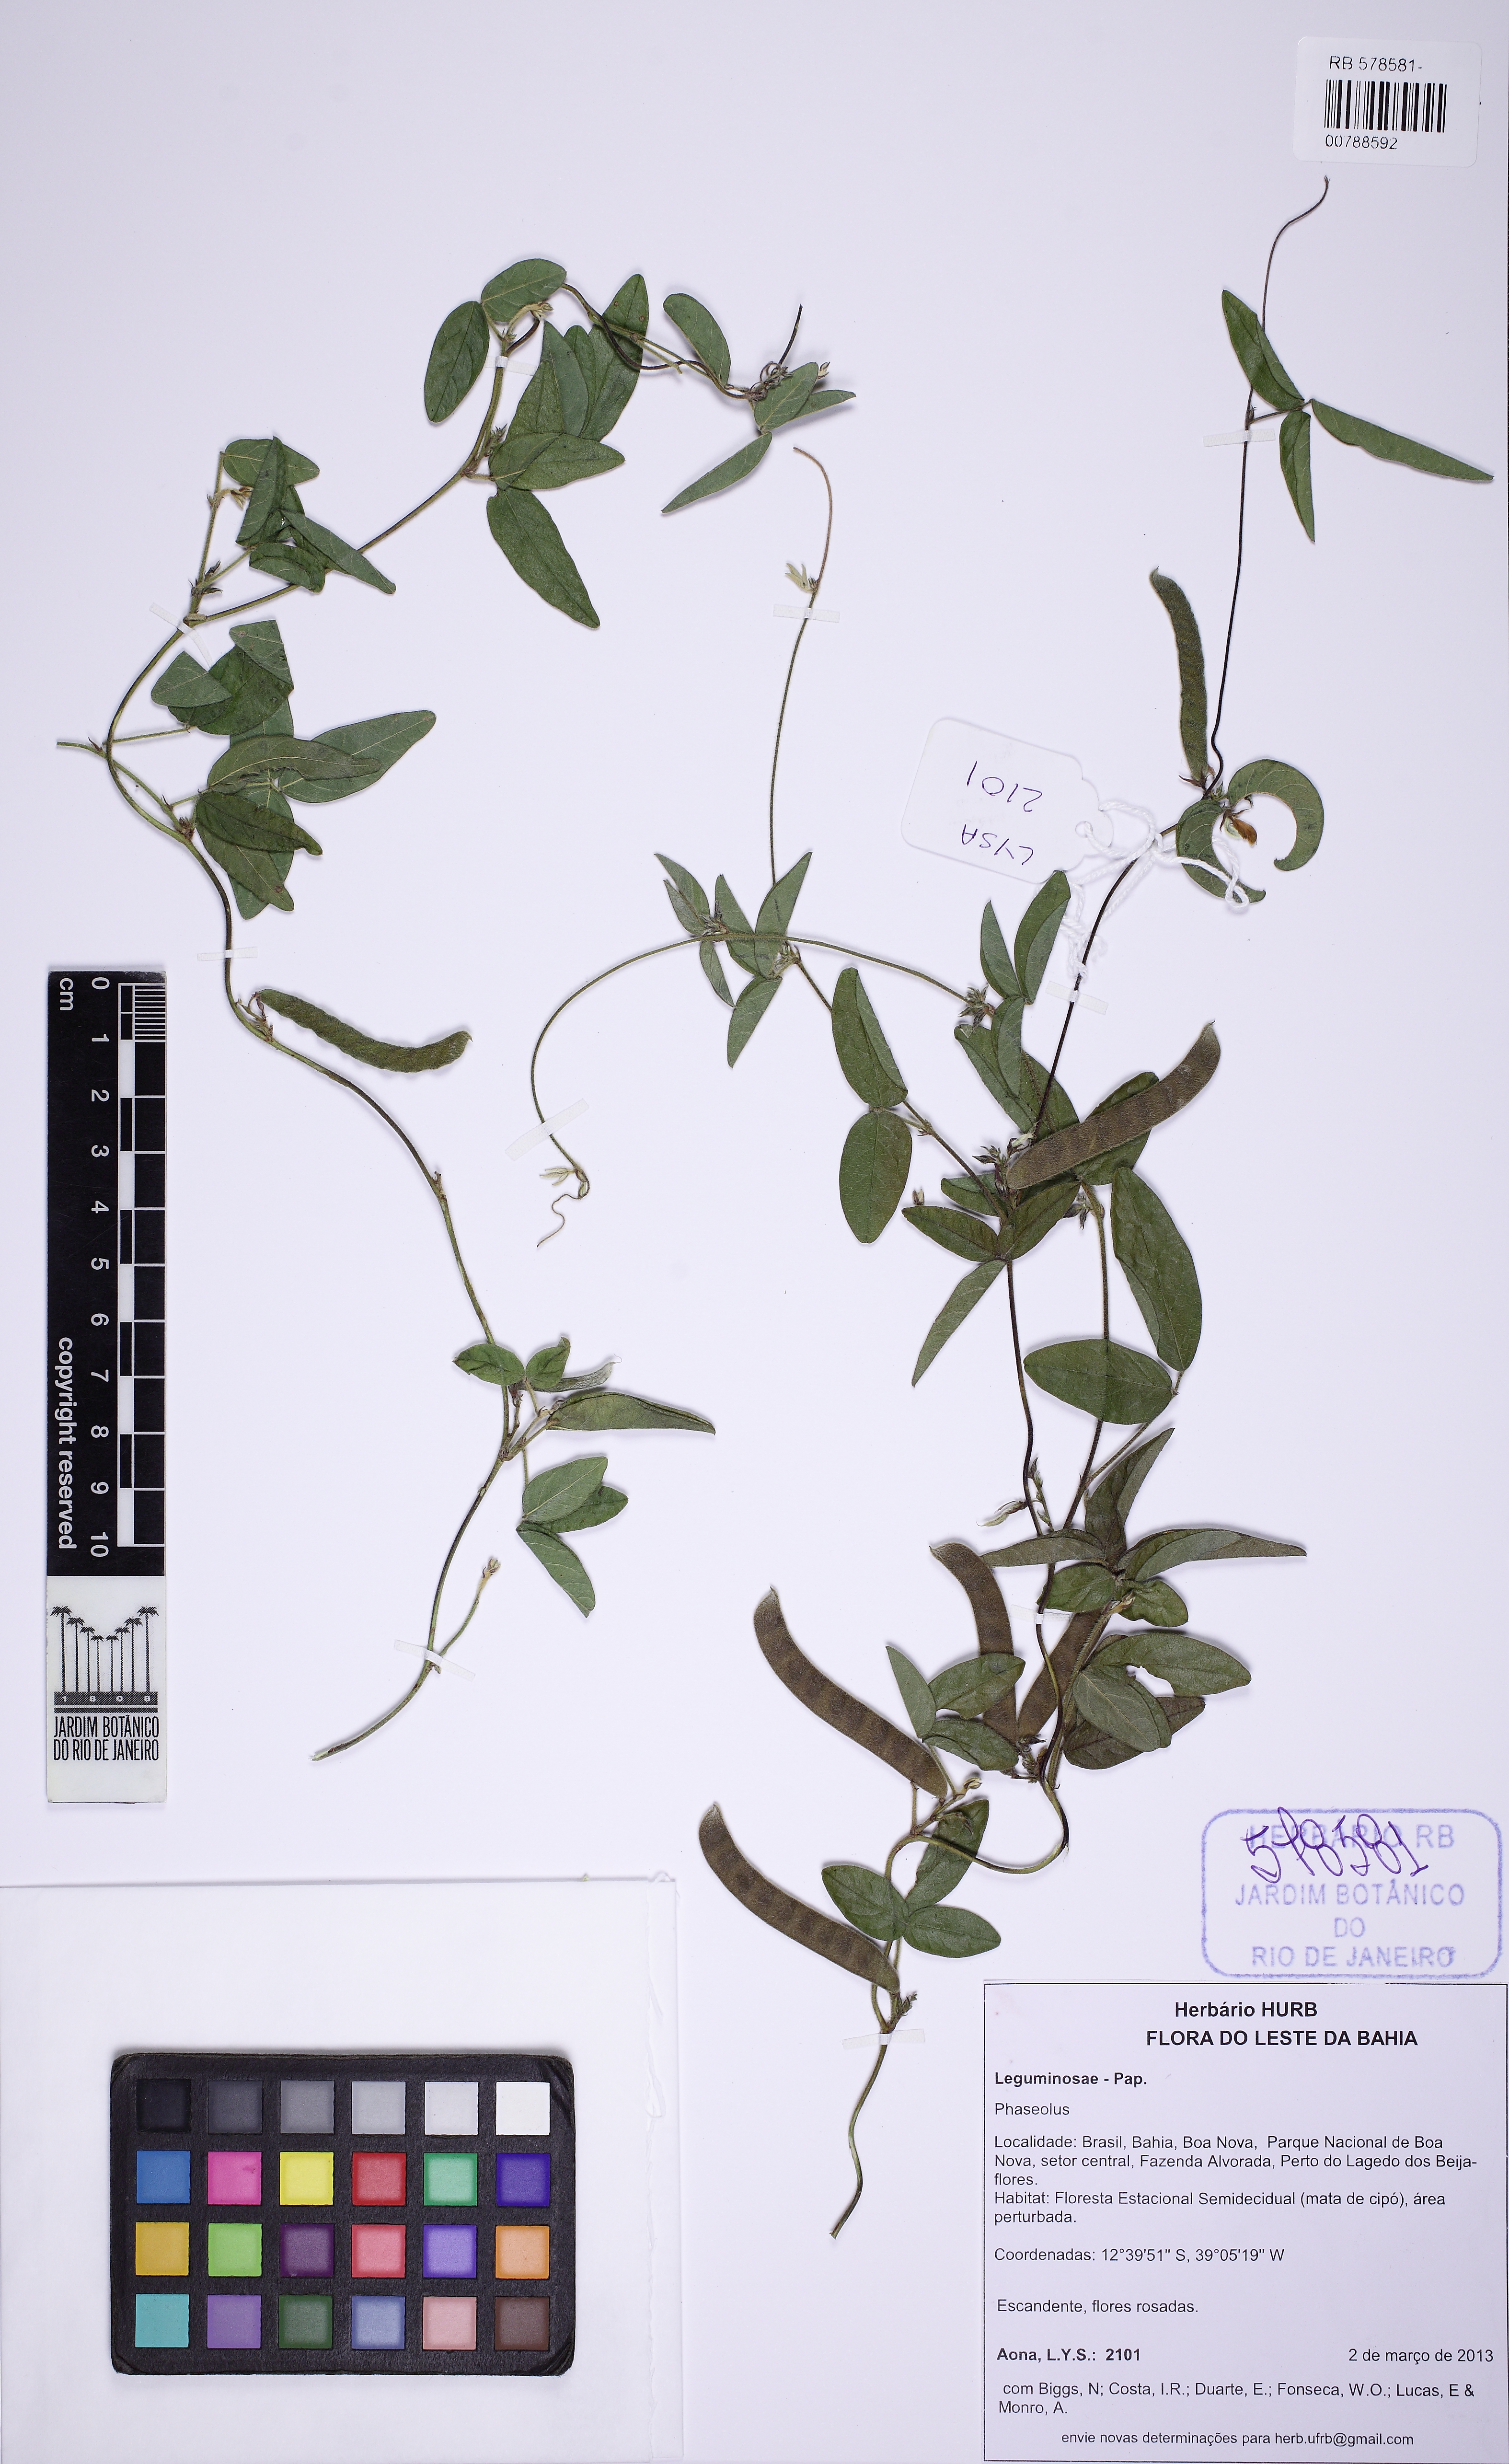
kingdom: Plantae
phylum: Tracheophyta
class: Magnoliopsida
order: Fabales
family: Fabaceae
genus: Galactia
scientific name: Galactia
